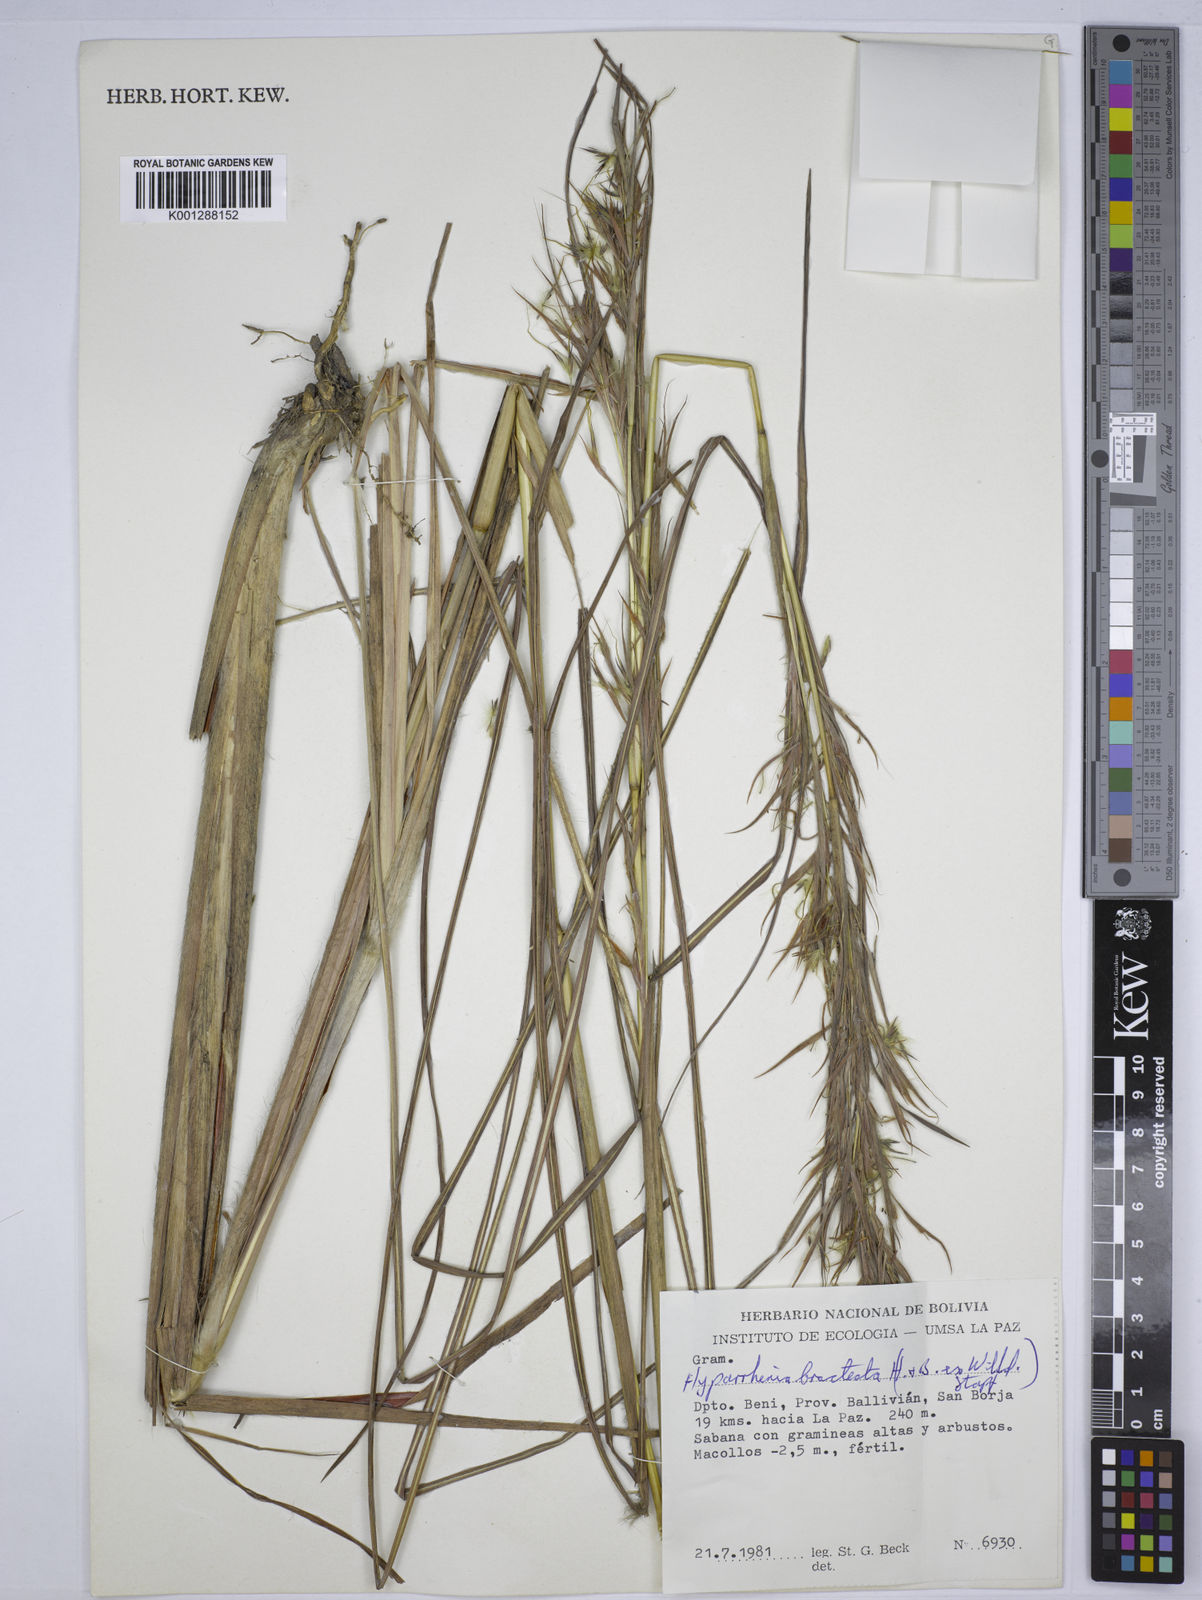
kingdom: Plantae
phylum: Tracheophyta
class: Liliopsida
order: Poales
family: Poaceae
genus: Hyparrhenia
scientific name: Hyparrhenia bracteata
